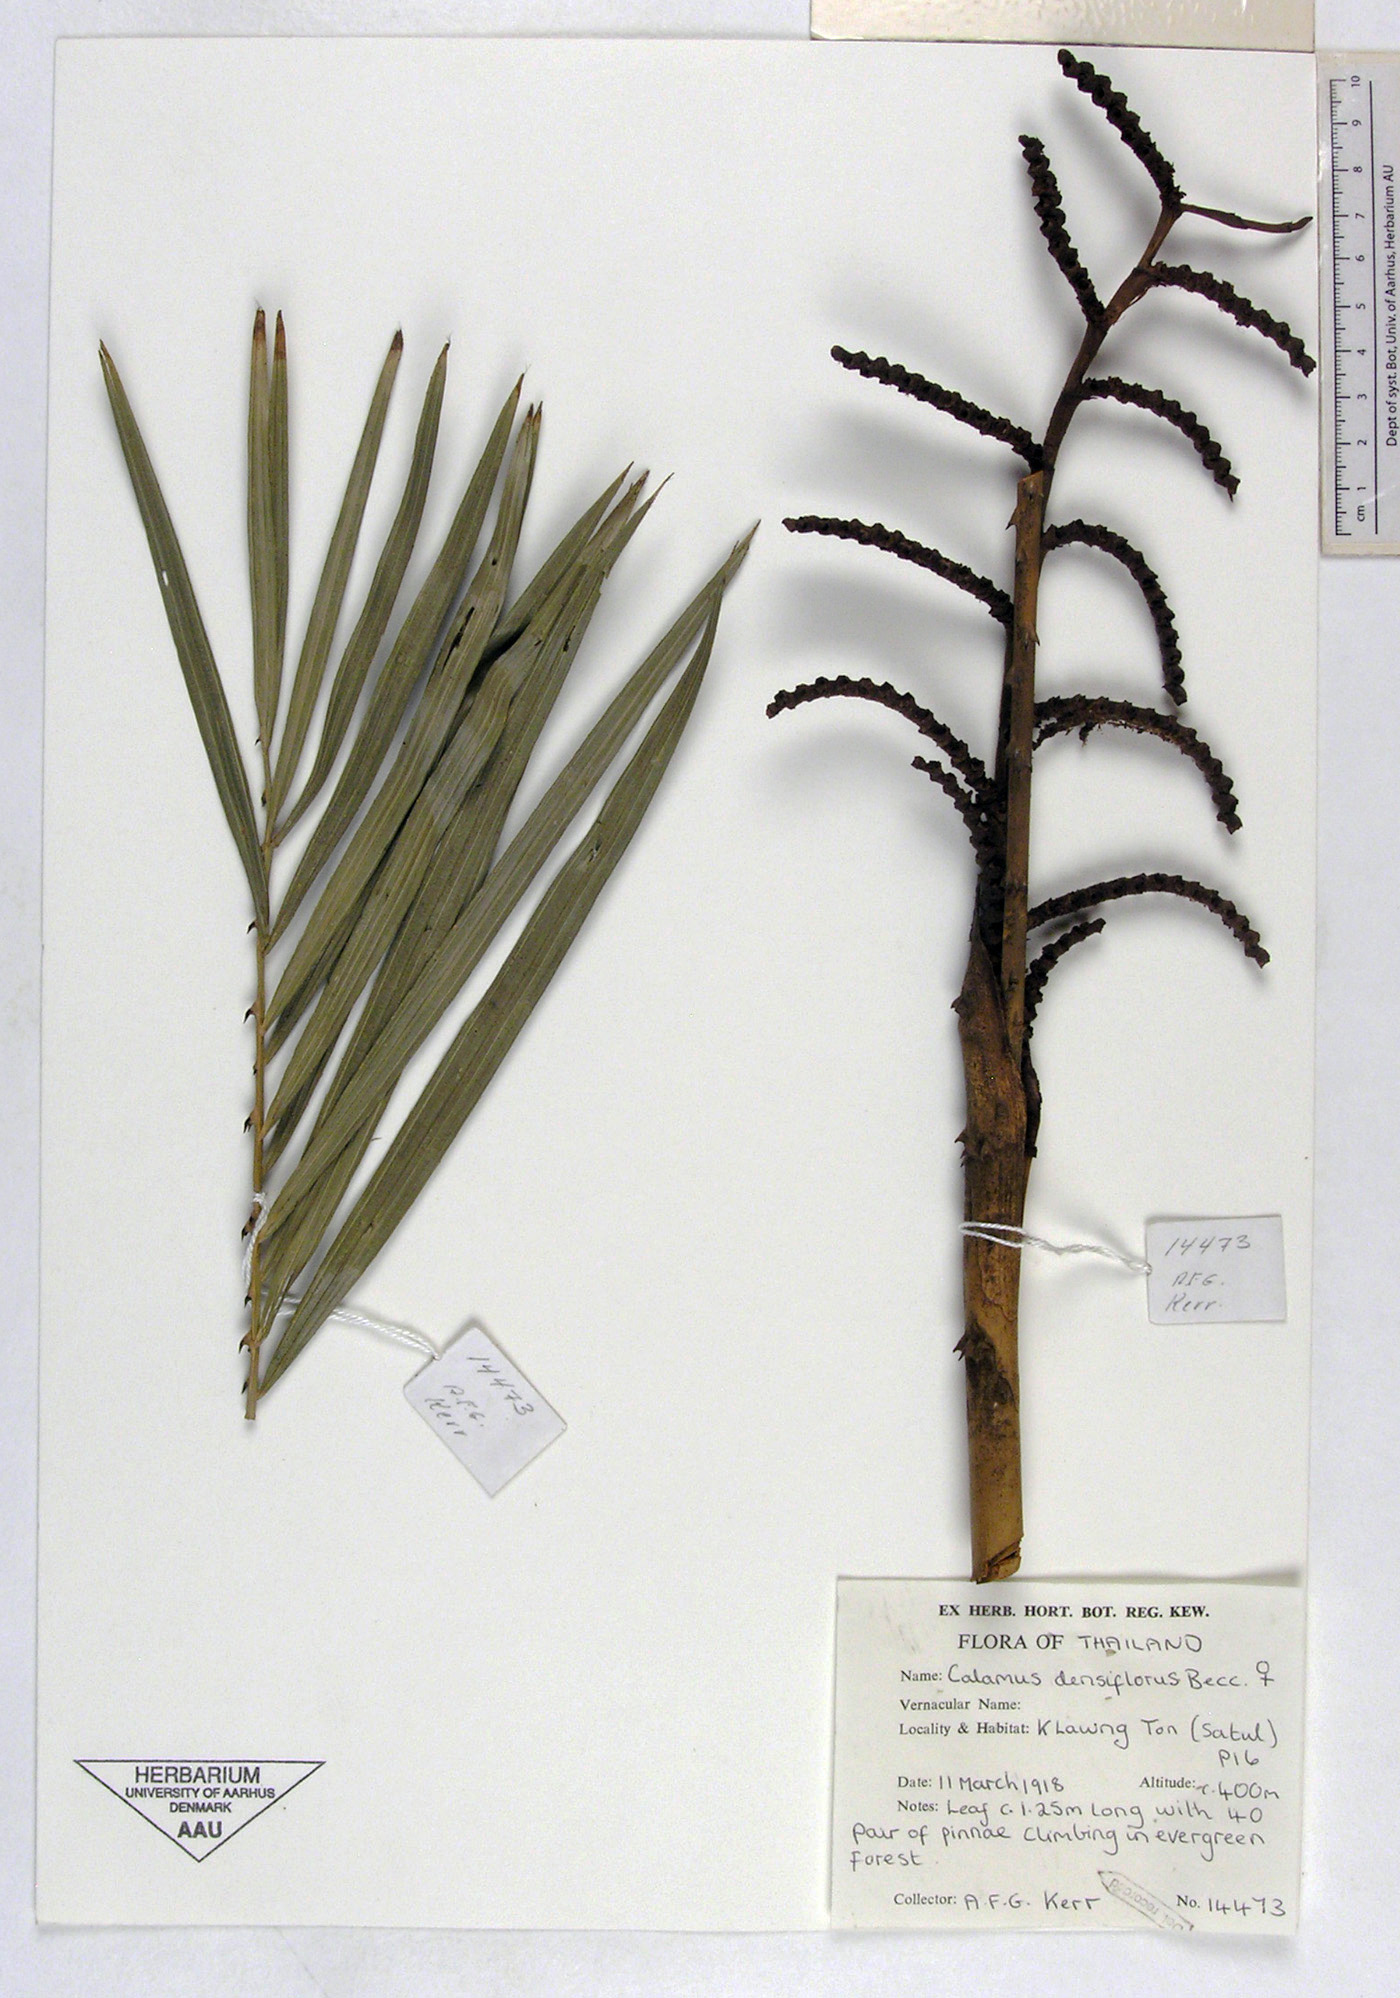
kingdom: Plantae
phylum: Tracheophyta
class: Liliopsida
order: Arecales
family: Arecaceae
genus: Calamus
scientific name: Calamus densiflorus
